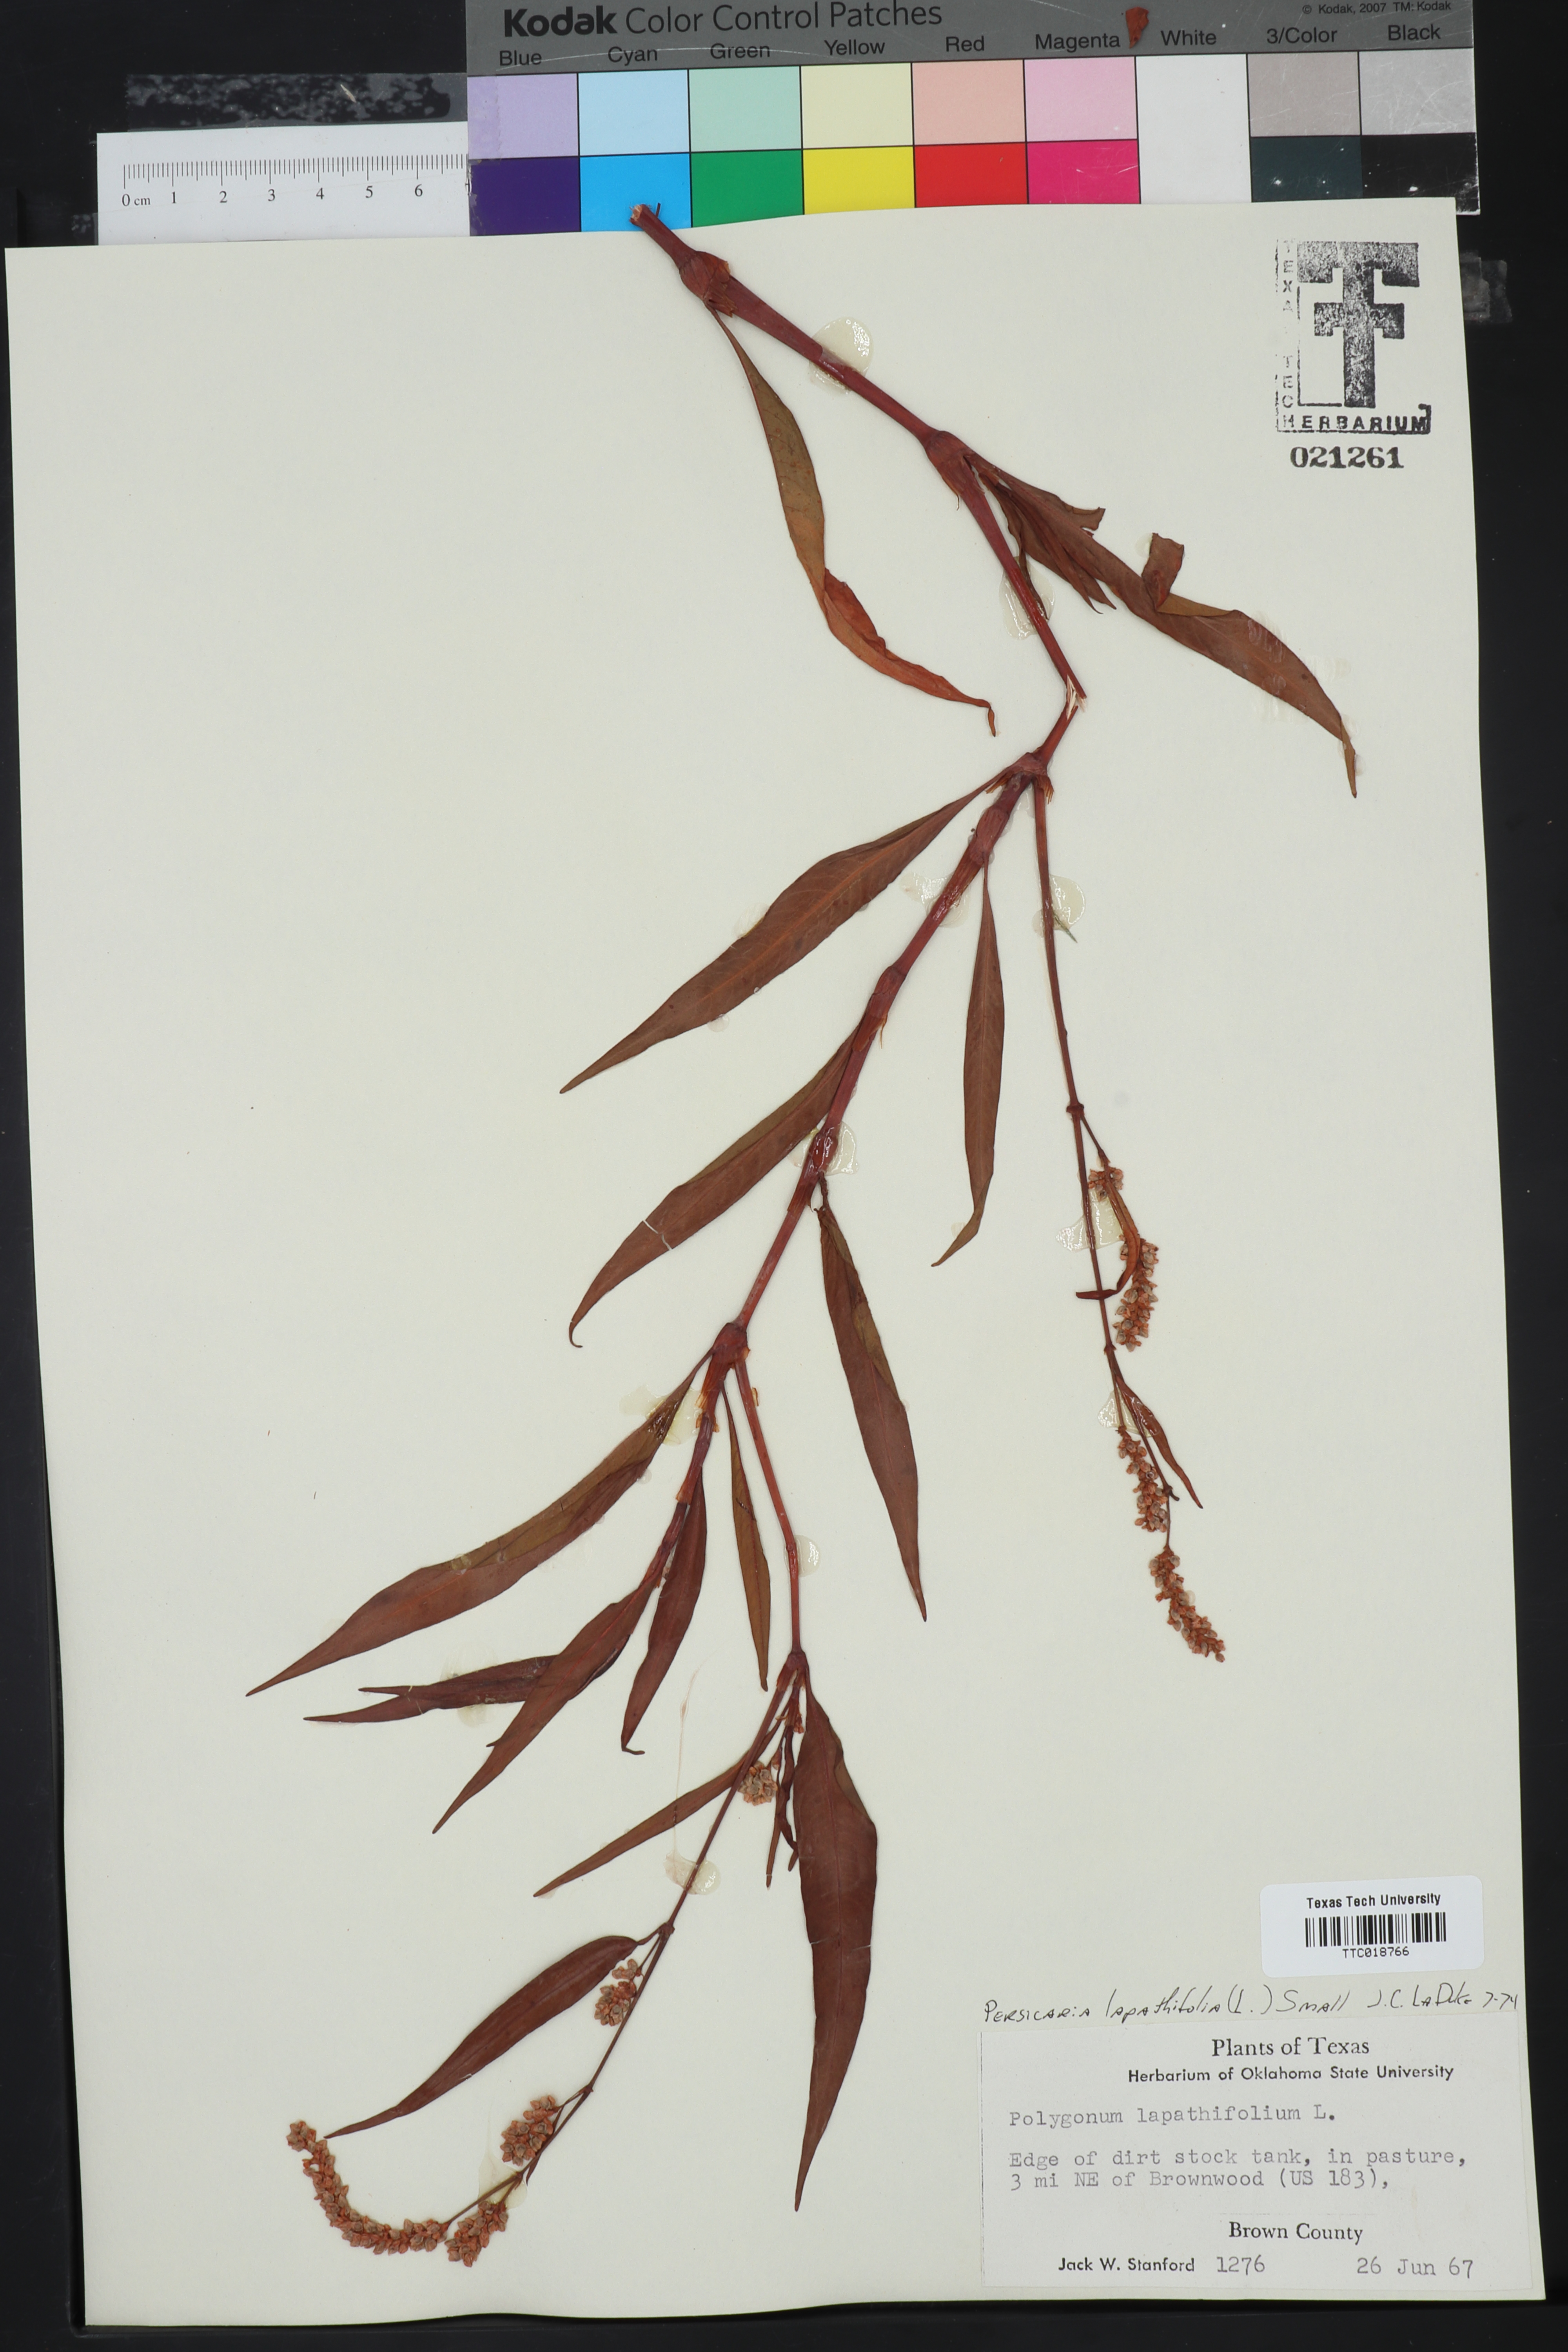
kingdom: Plantae
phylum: Tracheophyta
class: Magnoliopsida
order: Caryophyllales
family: Polygonaceae
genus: Persicaria
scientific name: Persicaria lapathifolia
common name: Curlytop knotweed
